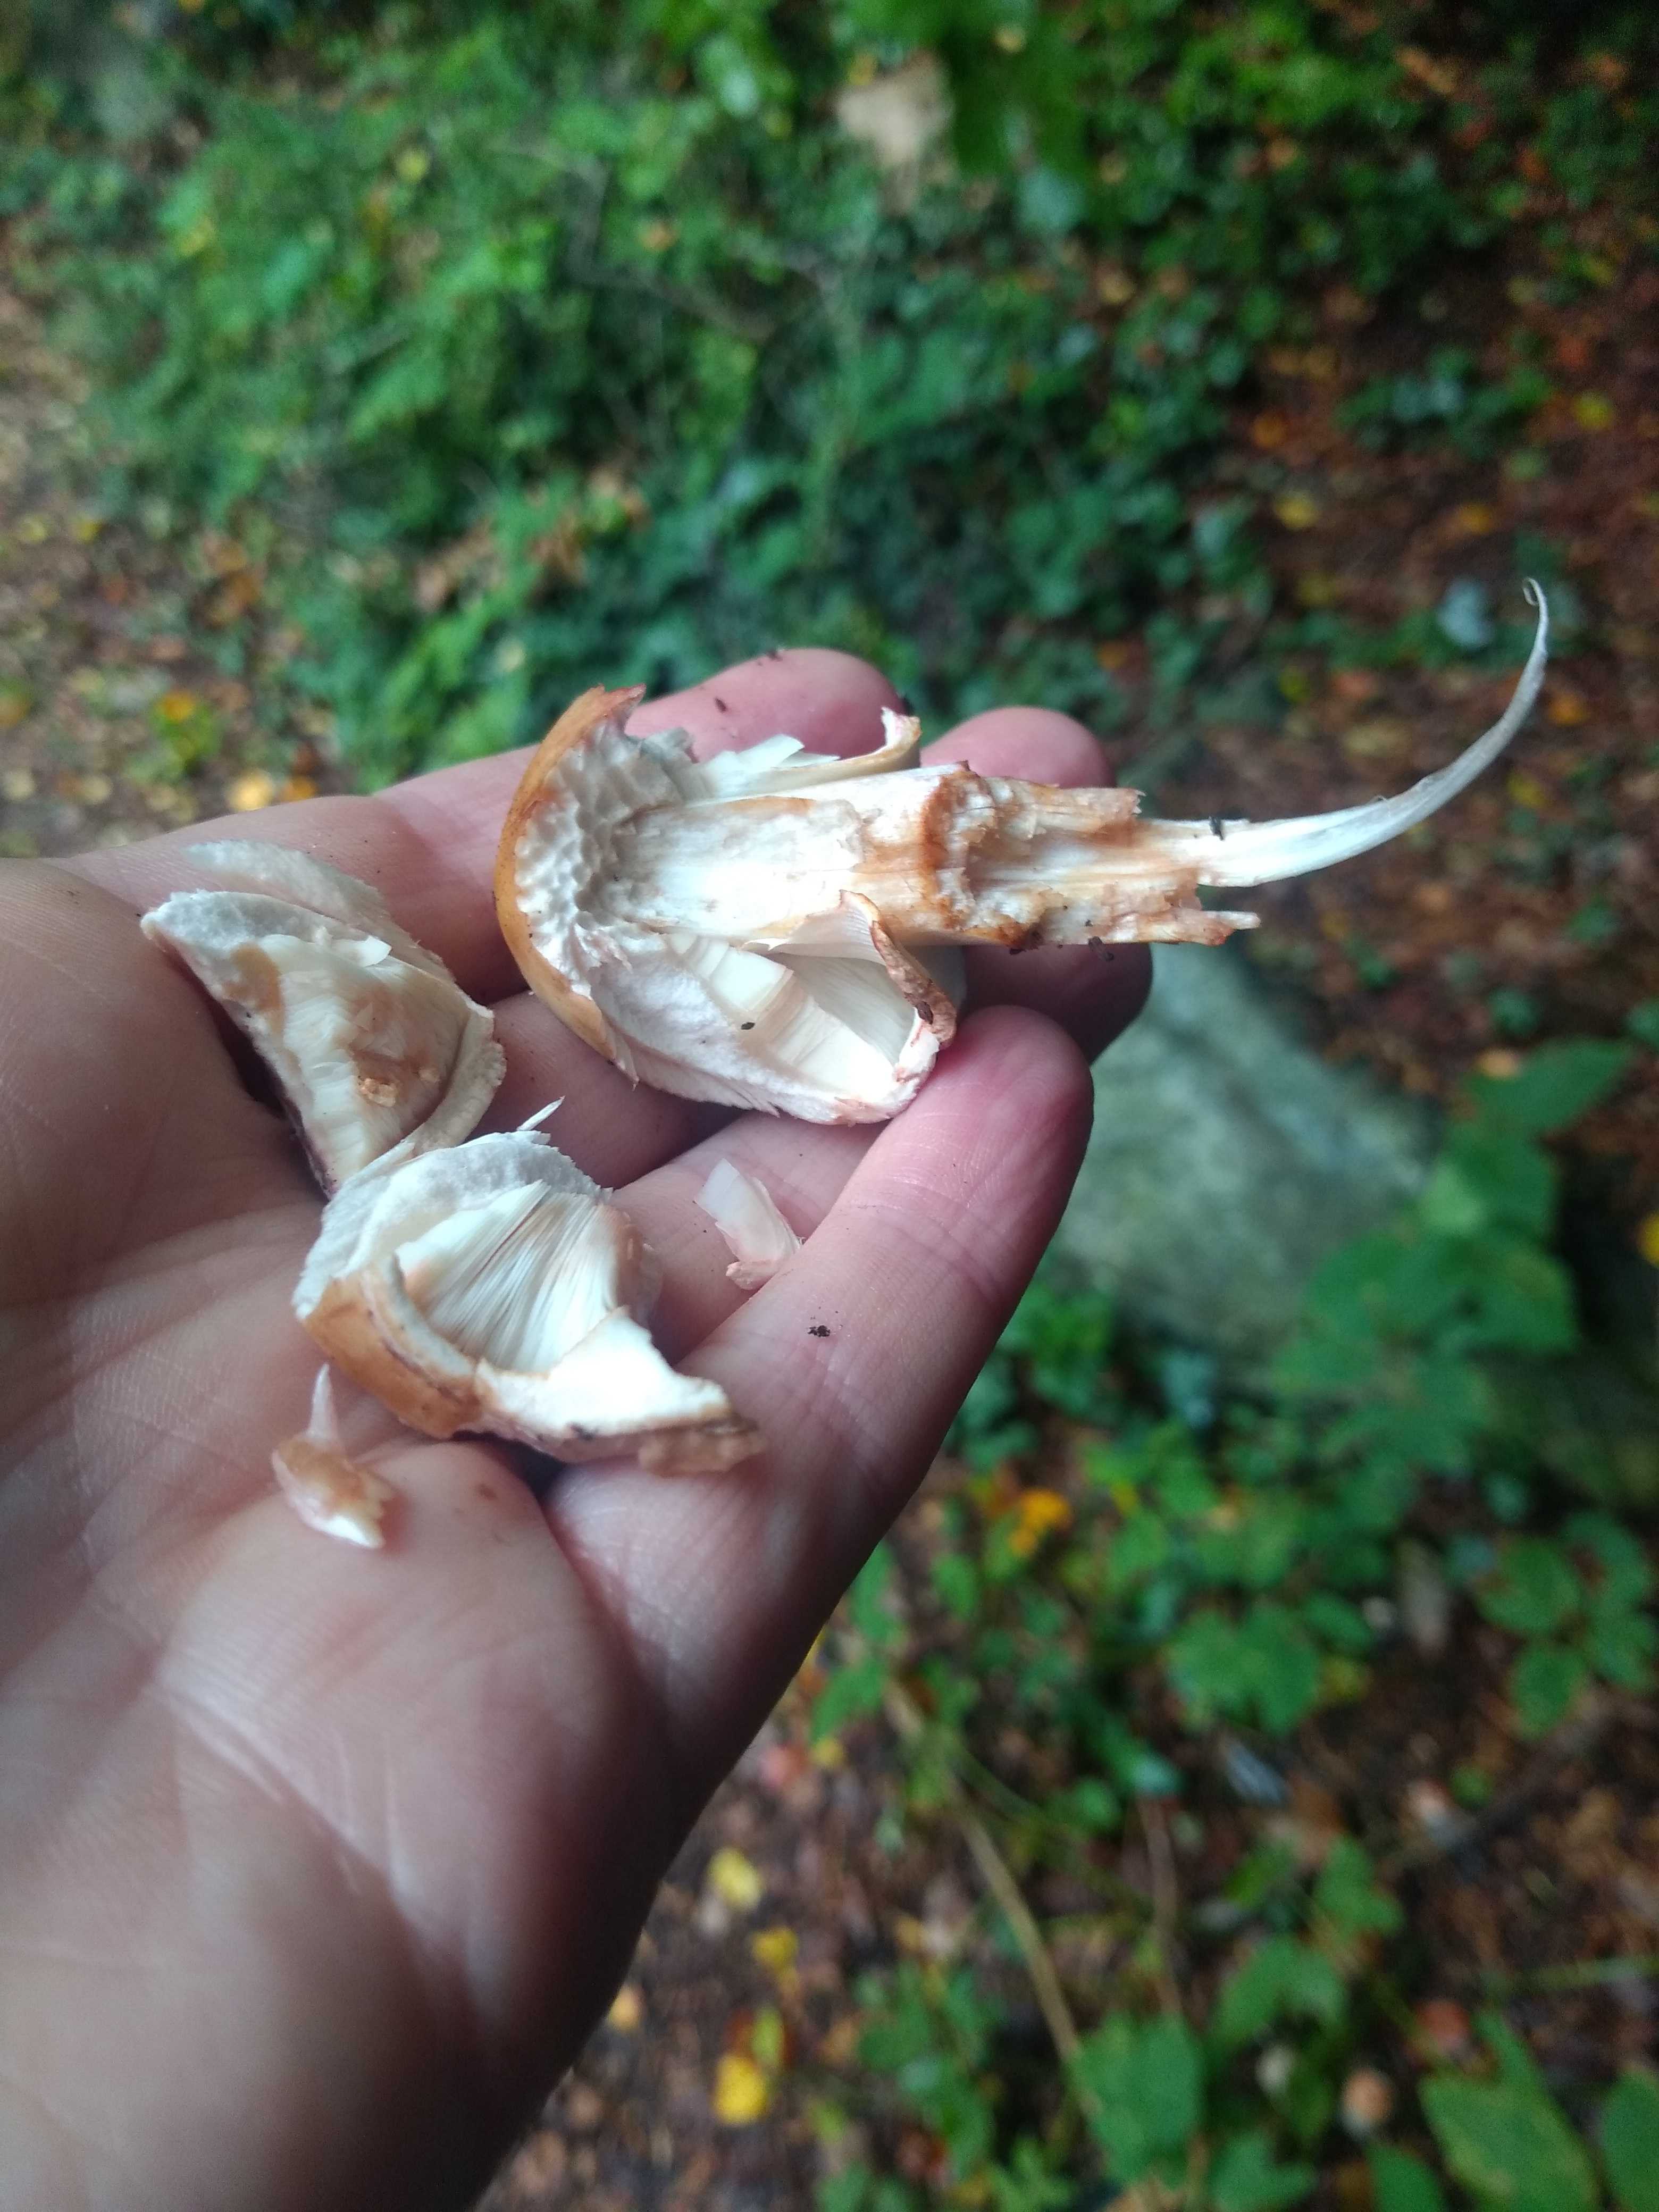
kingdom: Fungi
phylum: Basidiomycota
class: Agaricomycetes
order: Agaricales
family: Agaricaceae
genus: Chlorophyllum
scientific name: Chlorophyllum
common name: rabarberhat
